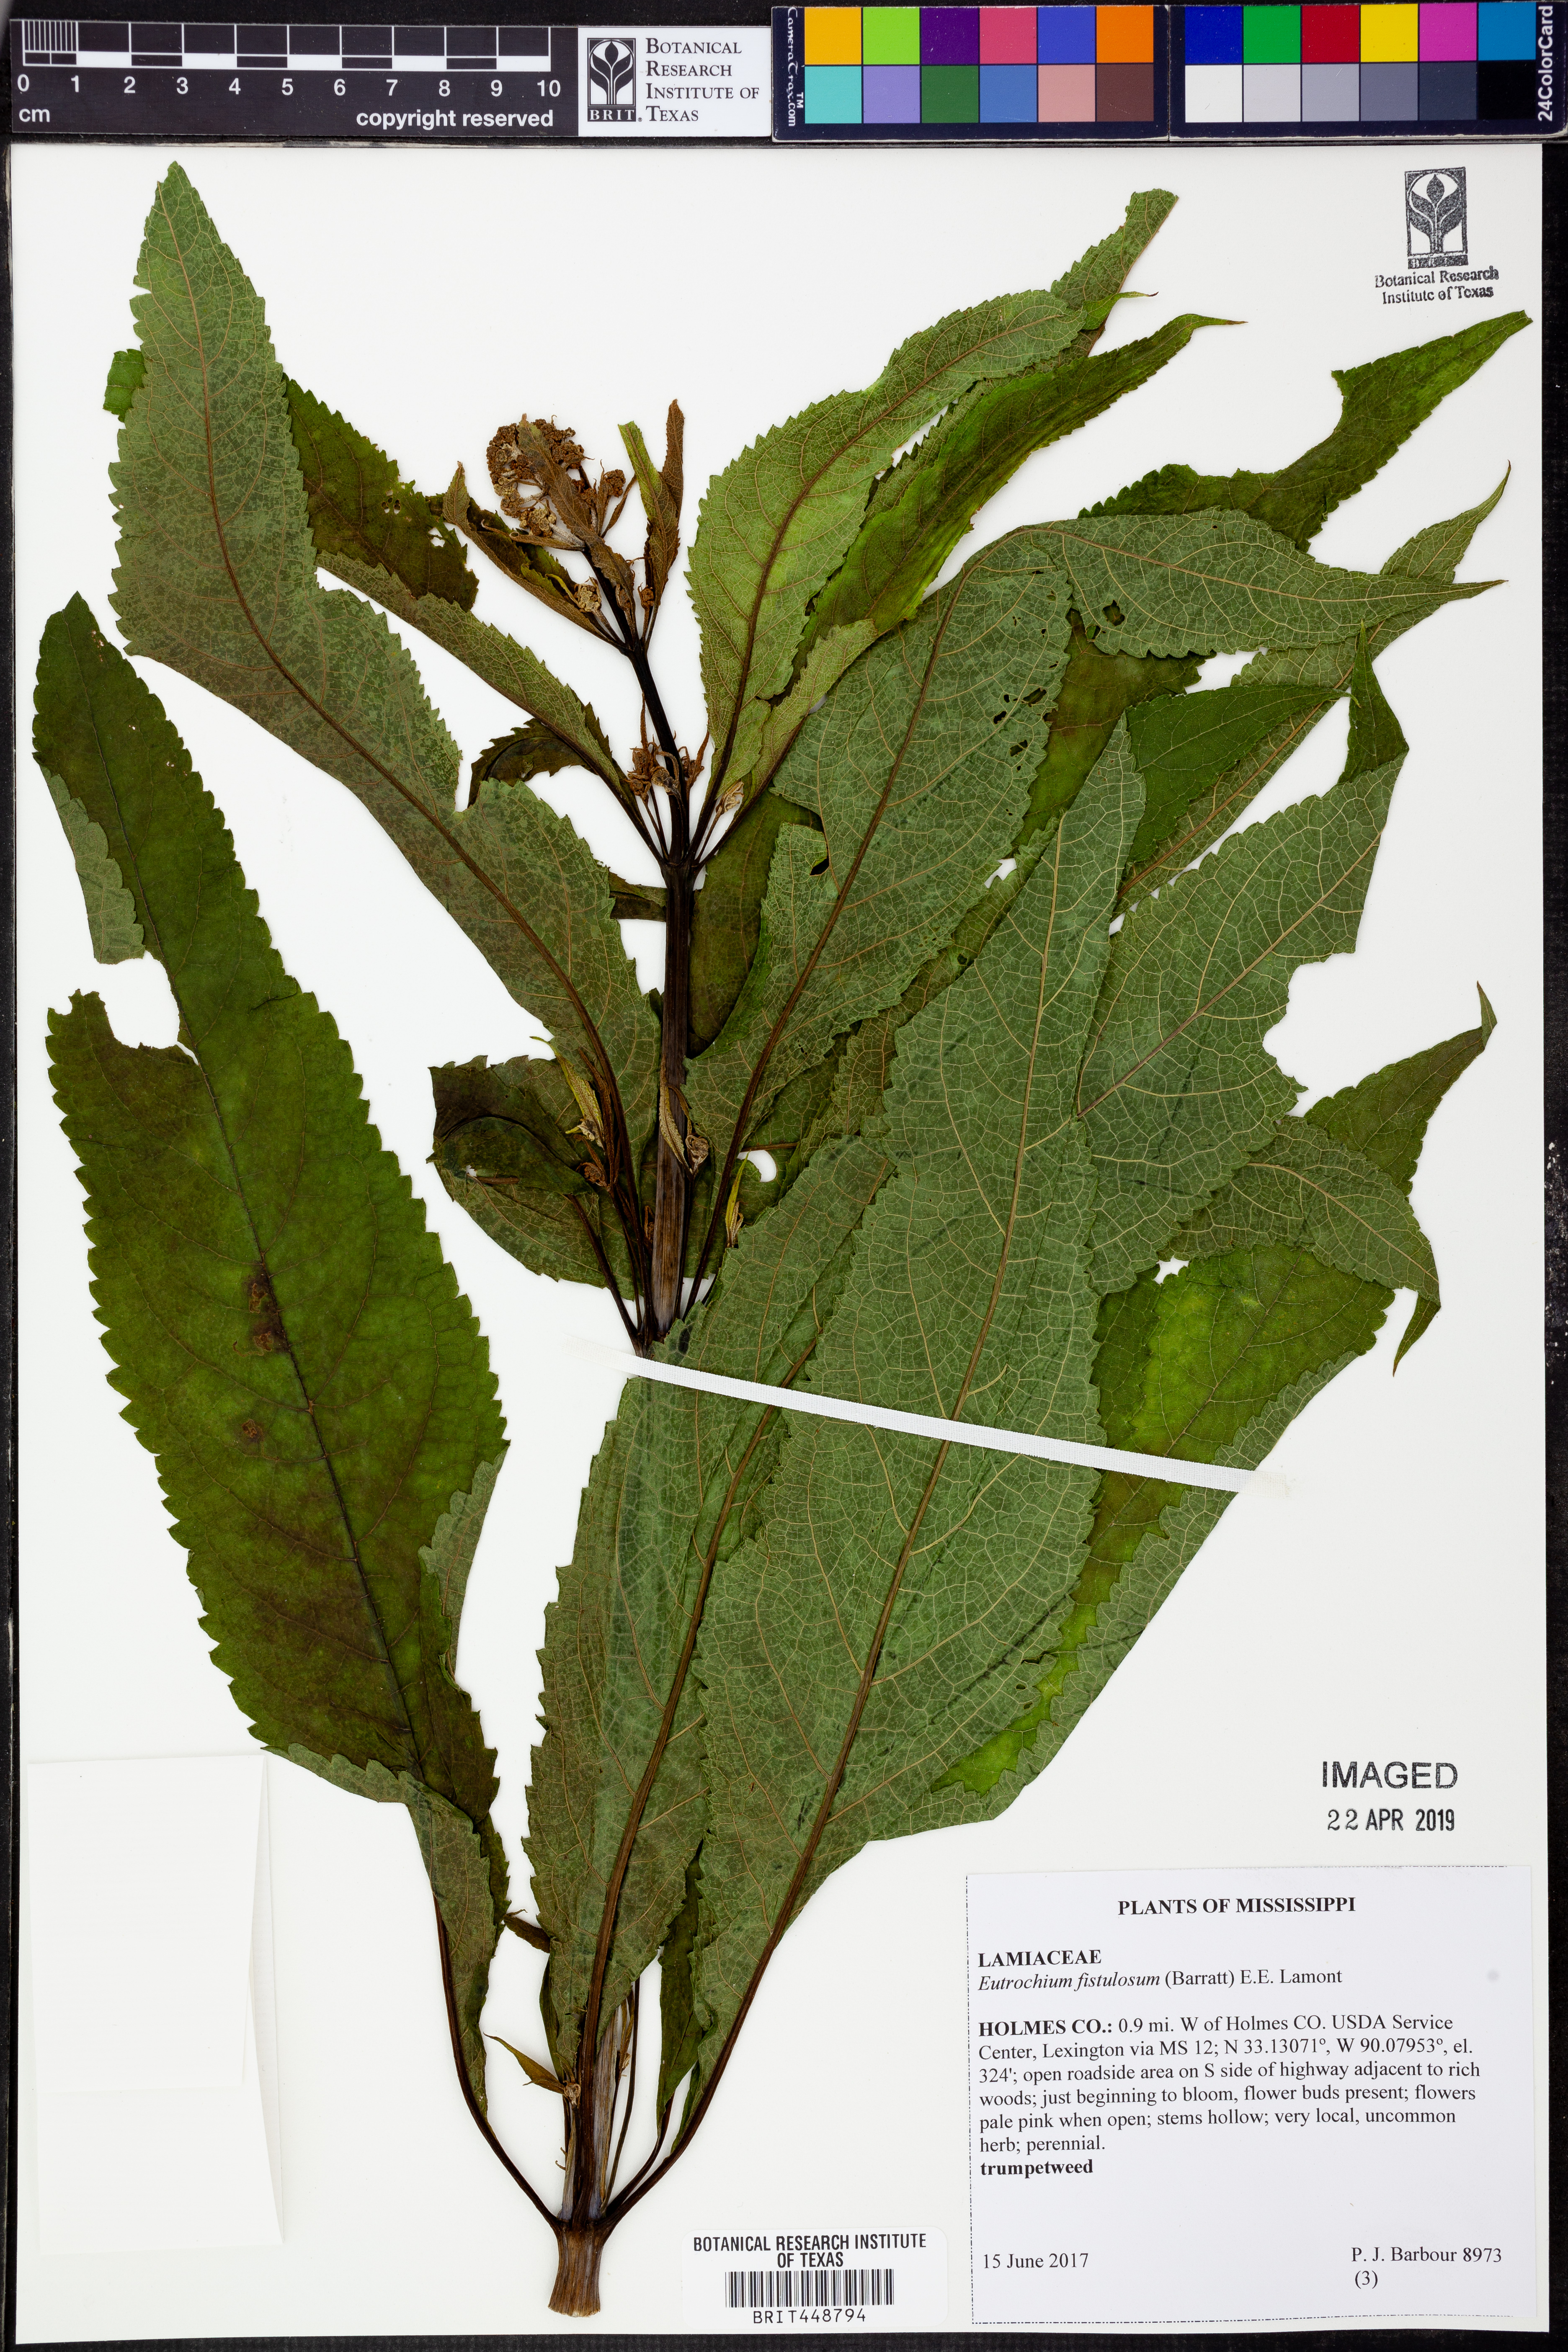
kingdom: Plantae
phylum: Tracheophyta
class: Magnoliopsida
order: Asterales
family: Asteraceae
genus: Eutrochium
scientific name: Eutrochium fistulosum
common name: Trumpetweed
